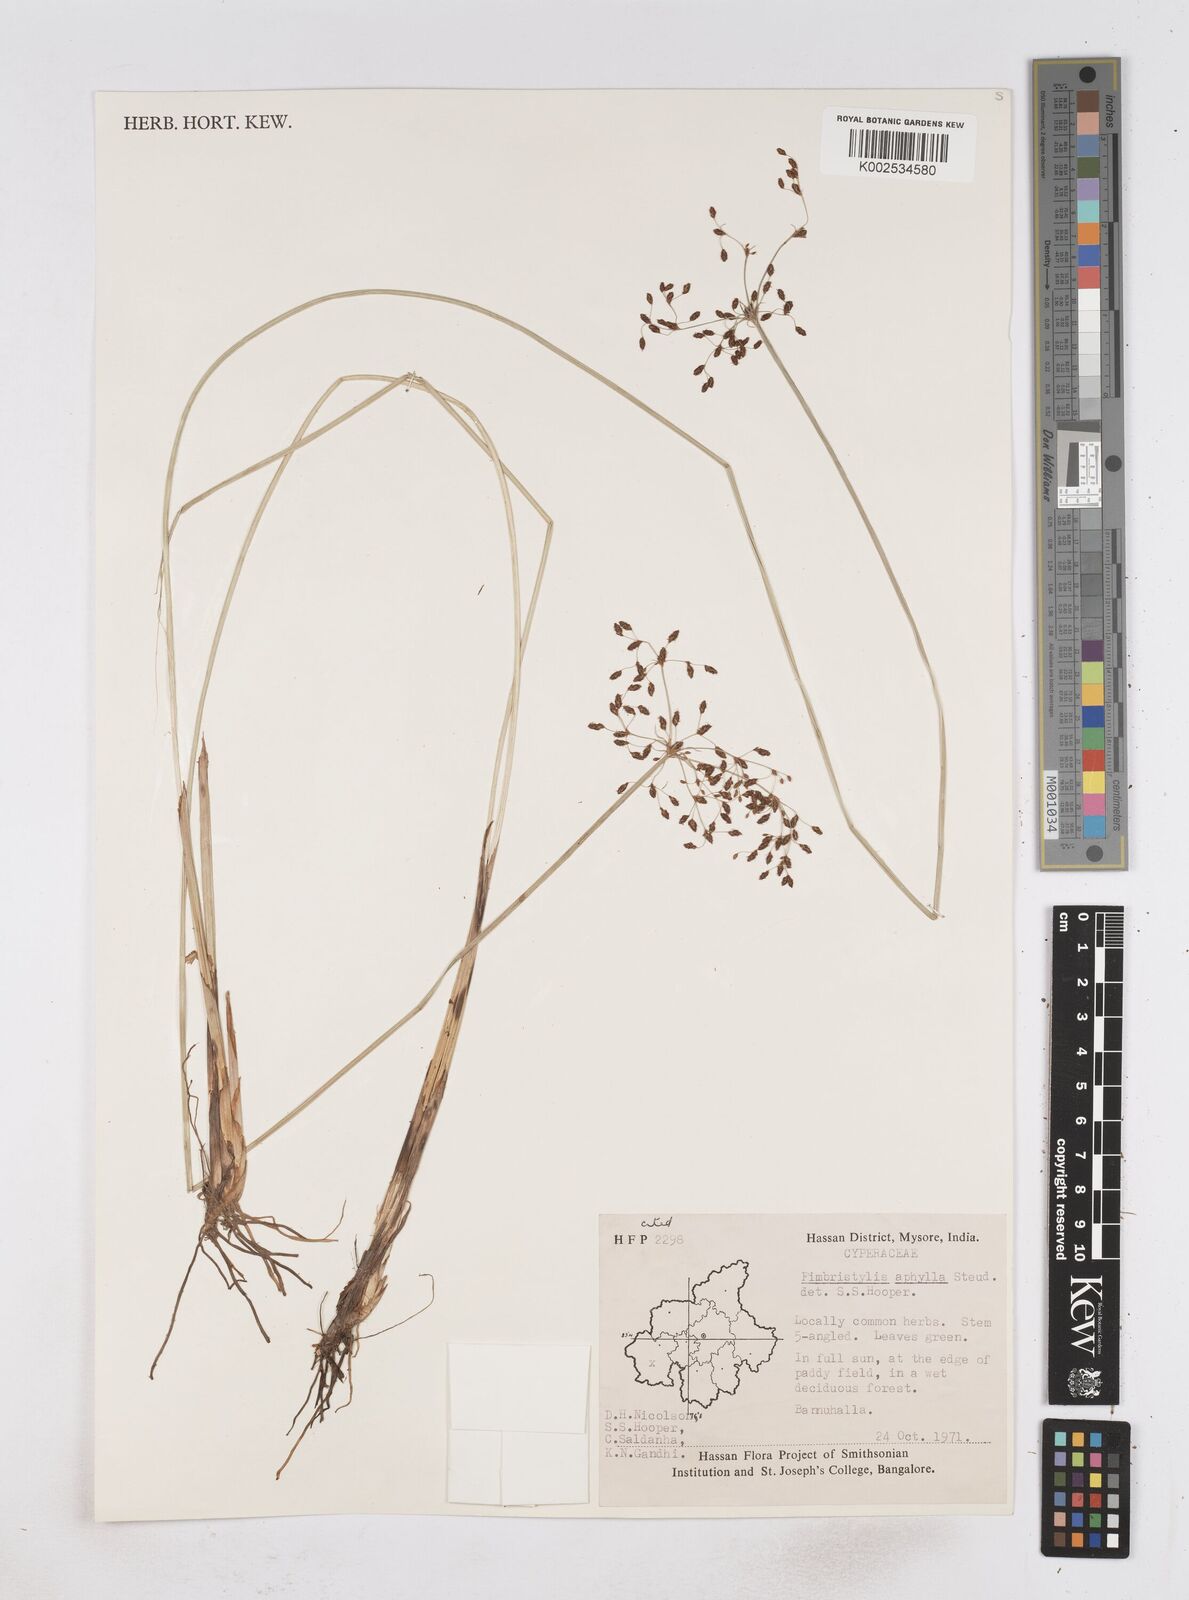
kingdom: Plantae
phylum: Tracheophyta
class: Liliopsida
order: Poales
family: Cyperaceae
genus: Fimbristylis
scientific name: Fimbristylis aphylla
